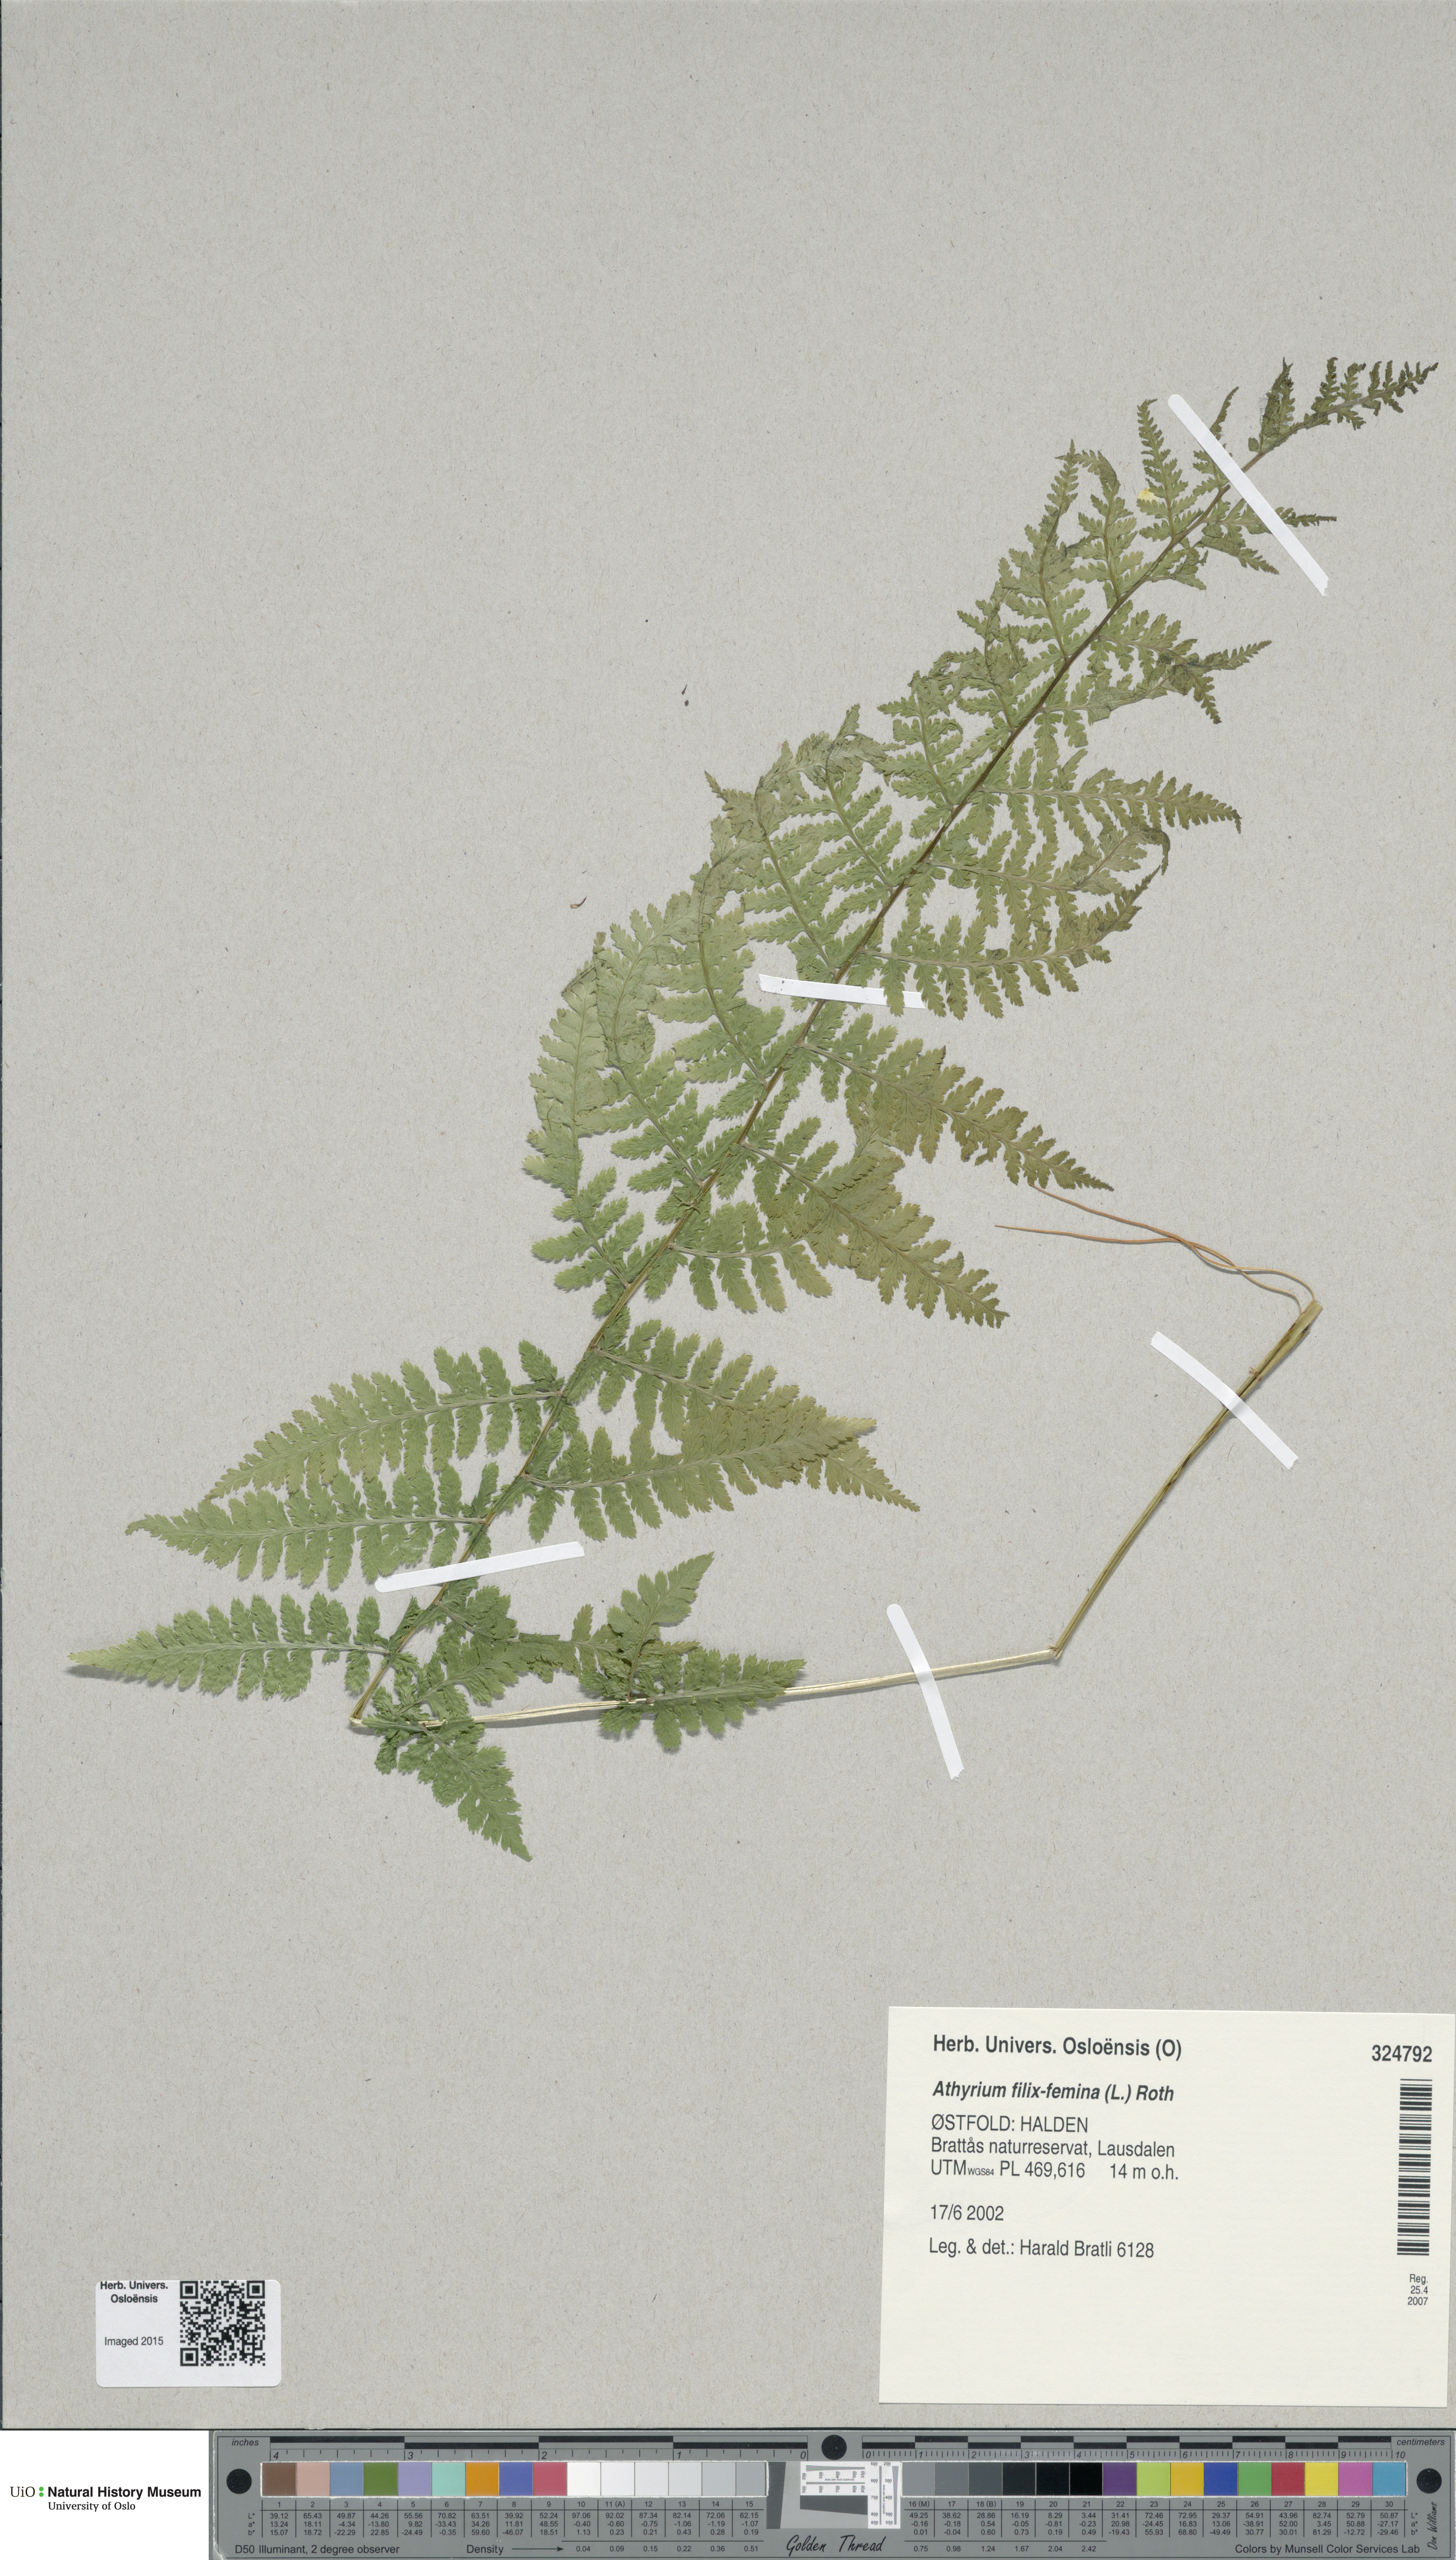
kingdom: Plantae
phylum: Tracheophyta
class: Polypodiopsida
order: Polypodiales
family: Athyriaceae
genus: Athyrium
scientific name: Athyrium filix-femina
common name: Lady fern
